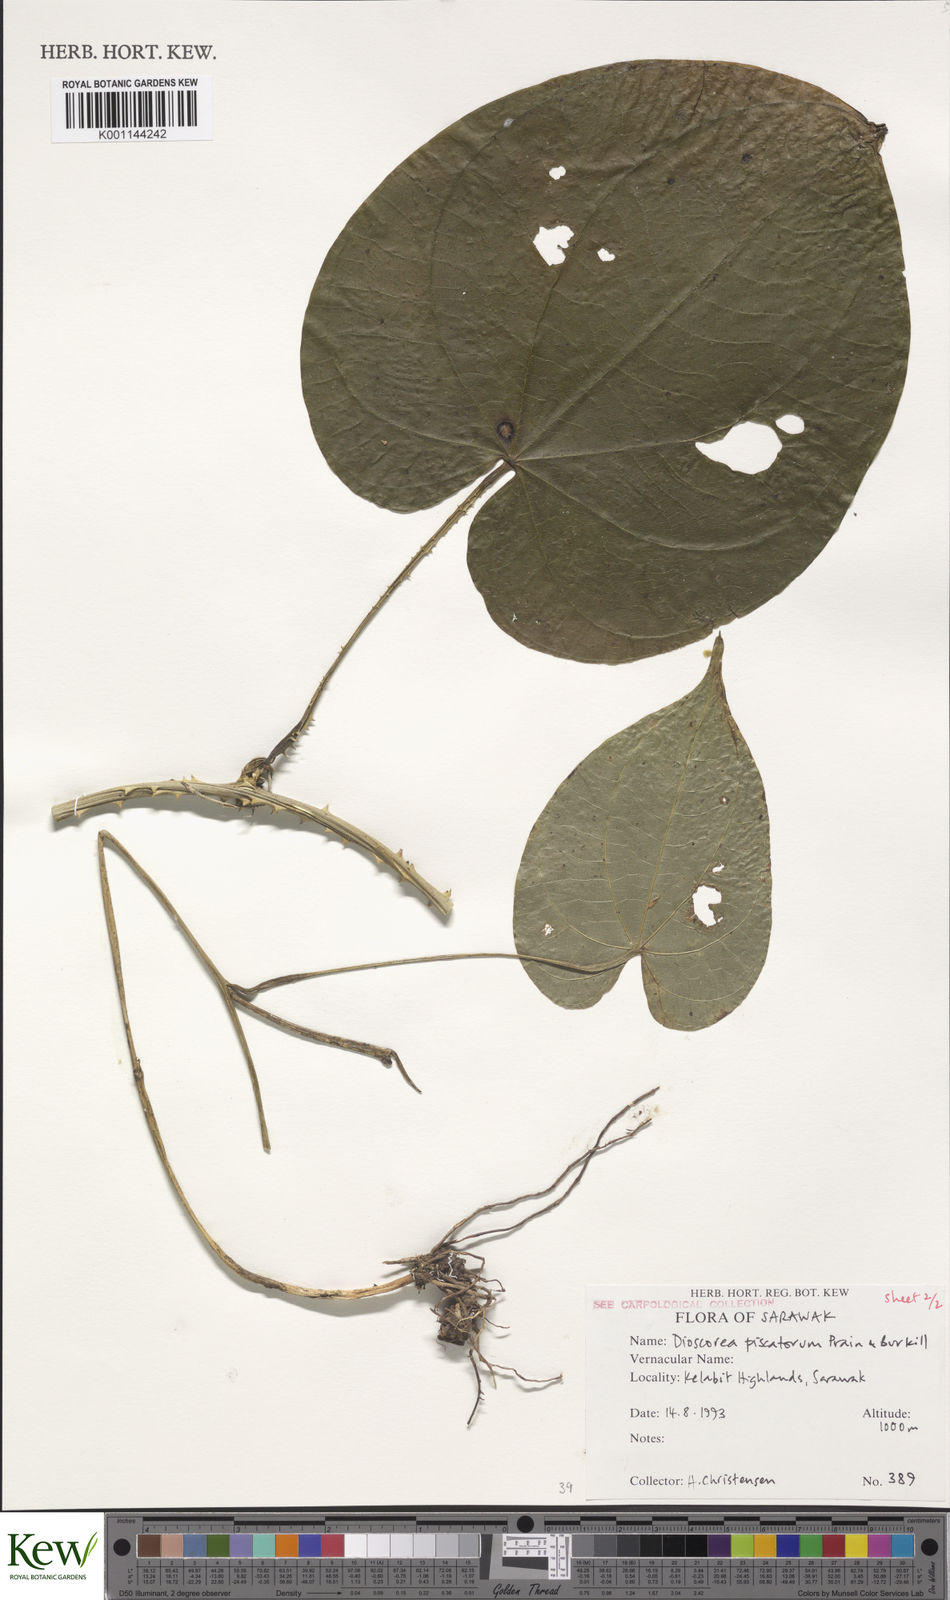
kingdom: Plantae
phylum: Tracheophyta
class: Liliopsida
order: Dioscoreales
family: Dioscoreaceae
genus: Dioscorea
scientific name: Dioscorea piscatorum
